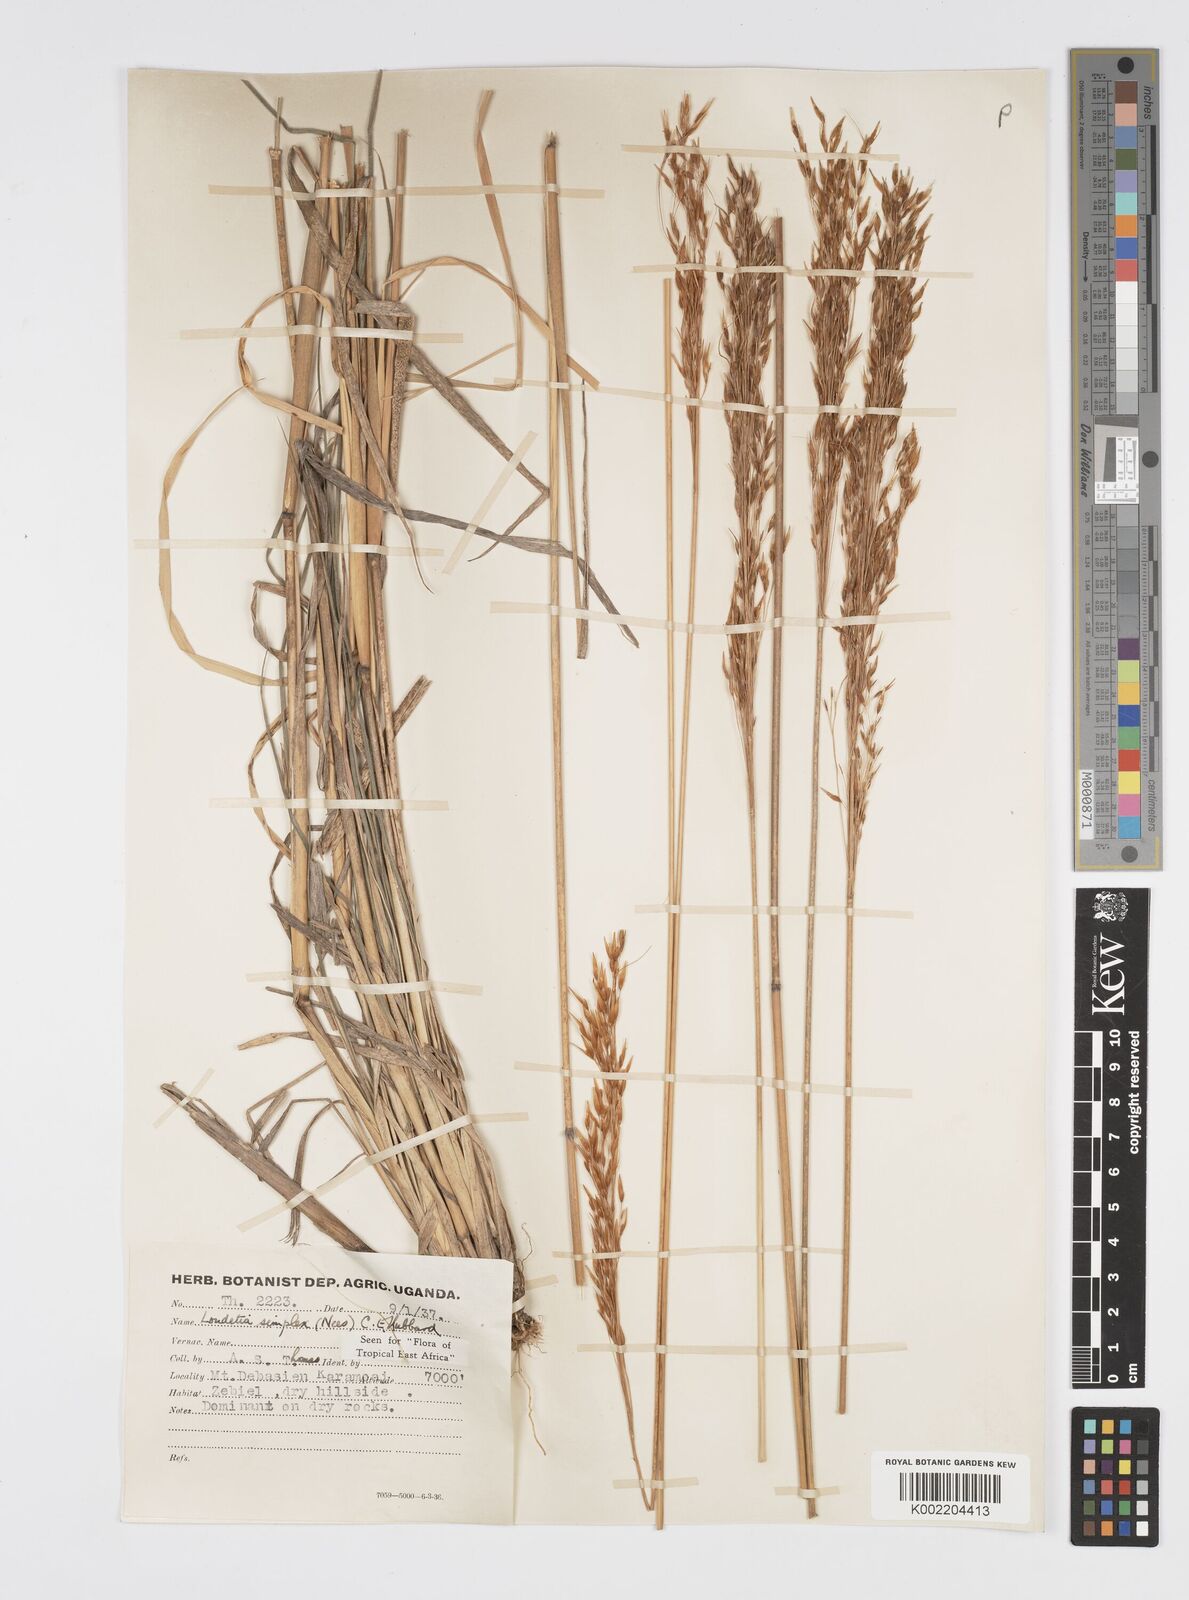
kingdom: Plantae
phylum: Tracheophyta
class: Liliopsida
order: Poales
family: Poaceae
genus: Loudetia
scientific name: Loudetia simplex
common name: Common russet grass
